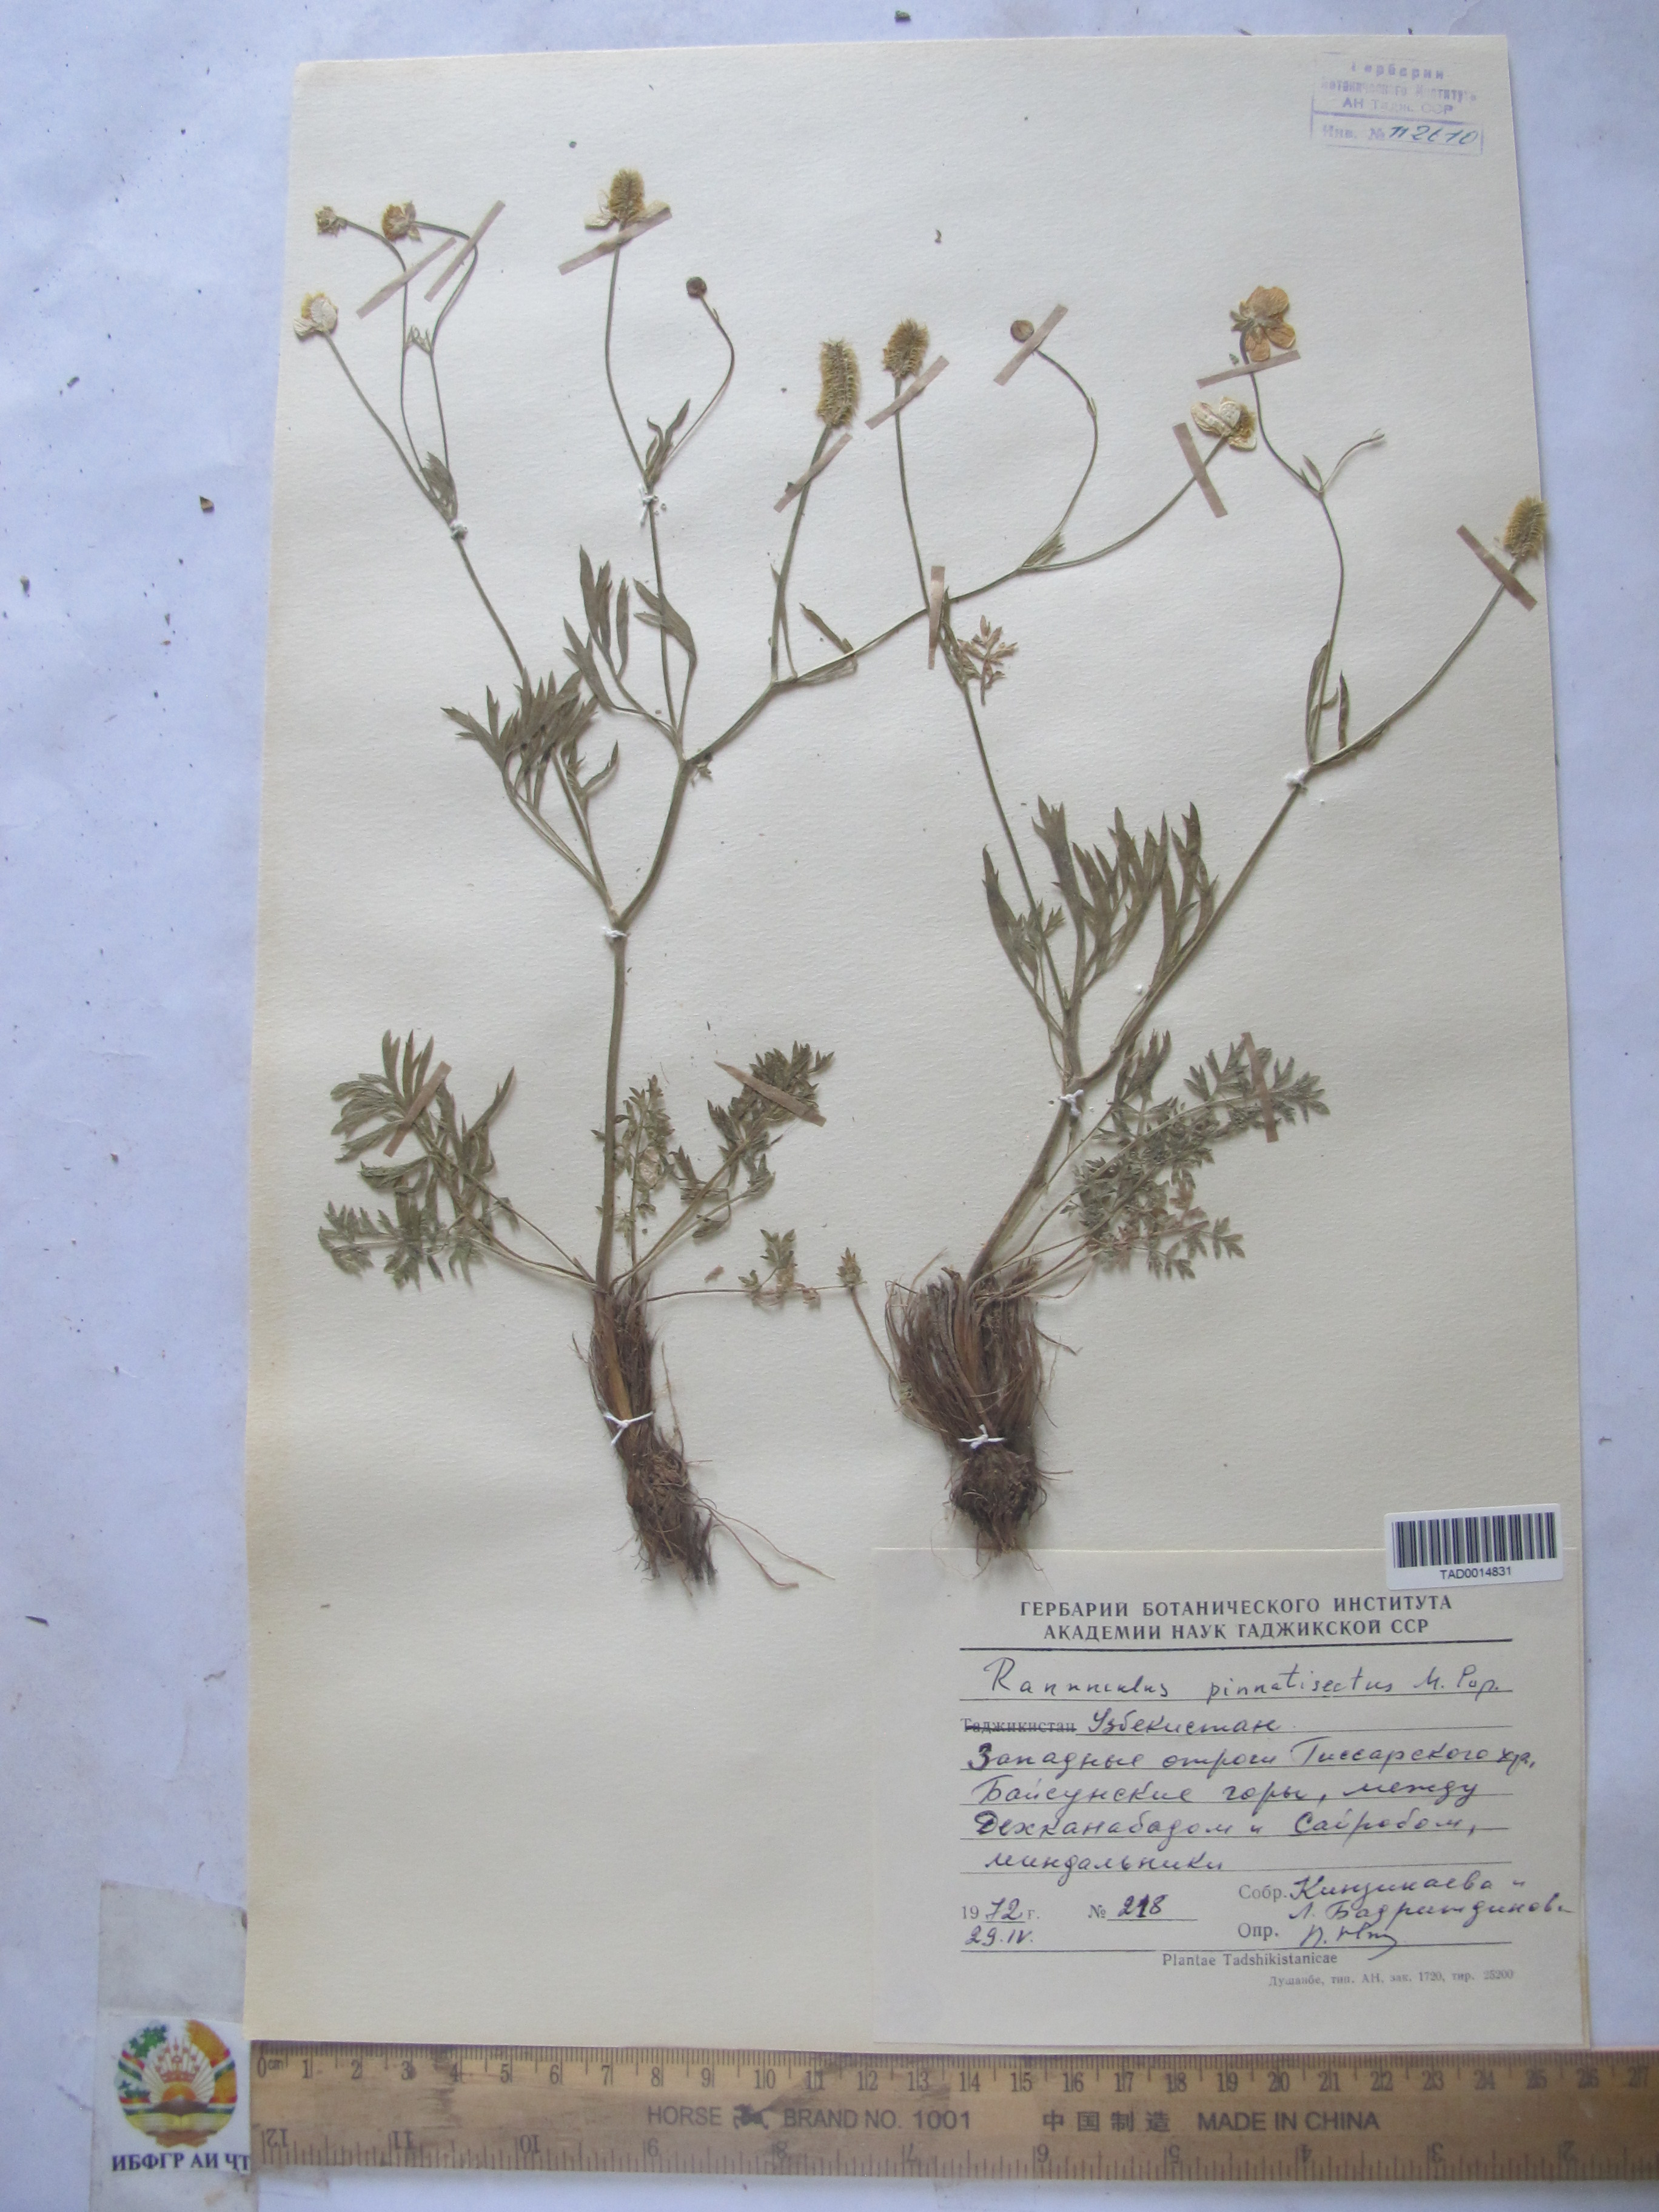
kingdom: Plantae
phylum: Tracheophyta
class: Magnoliopsida
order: Ranunculales
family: Ranunculaceae
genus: Ranunculus
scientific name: Ranunculus pinnatisectus
